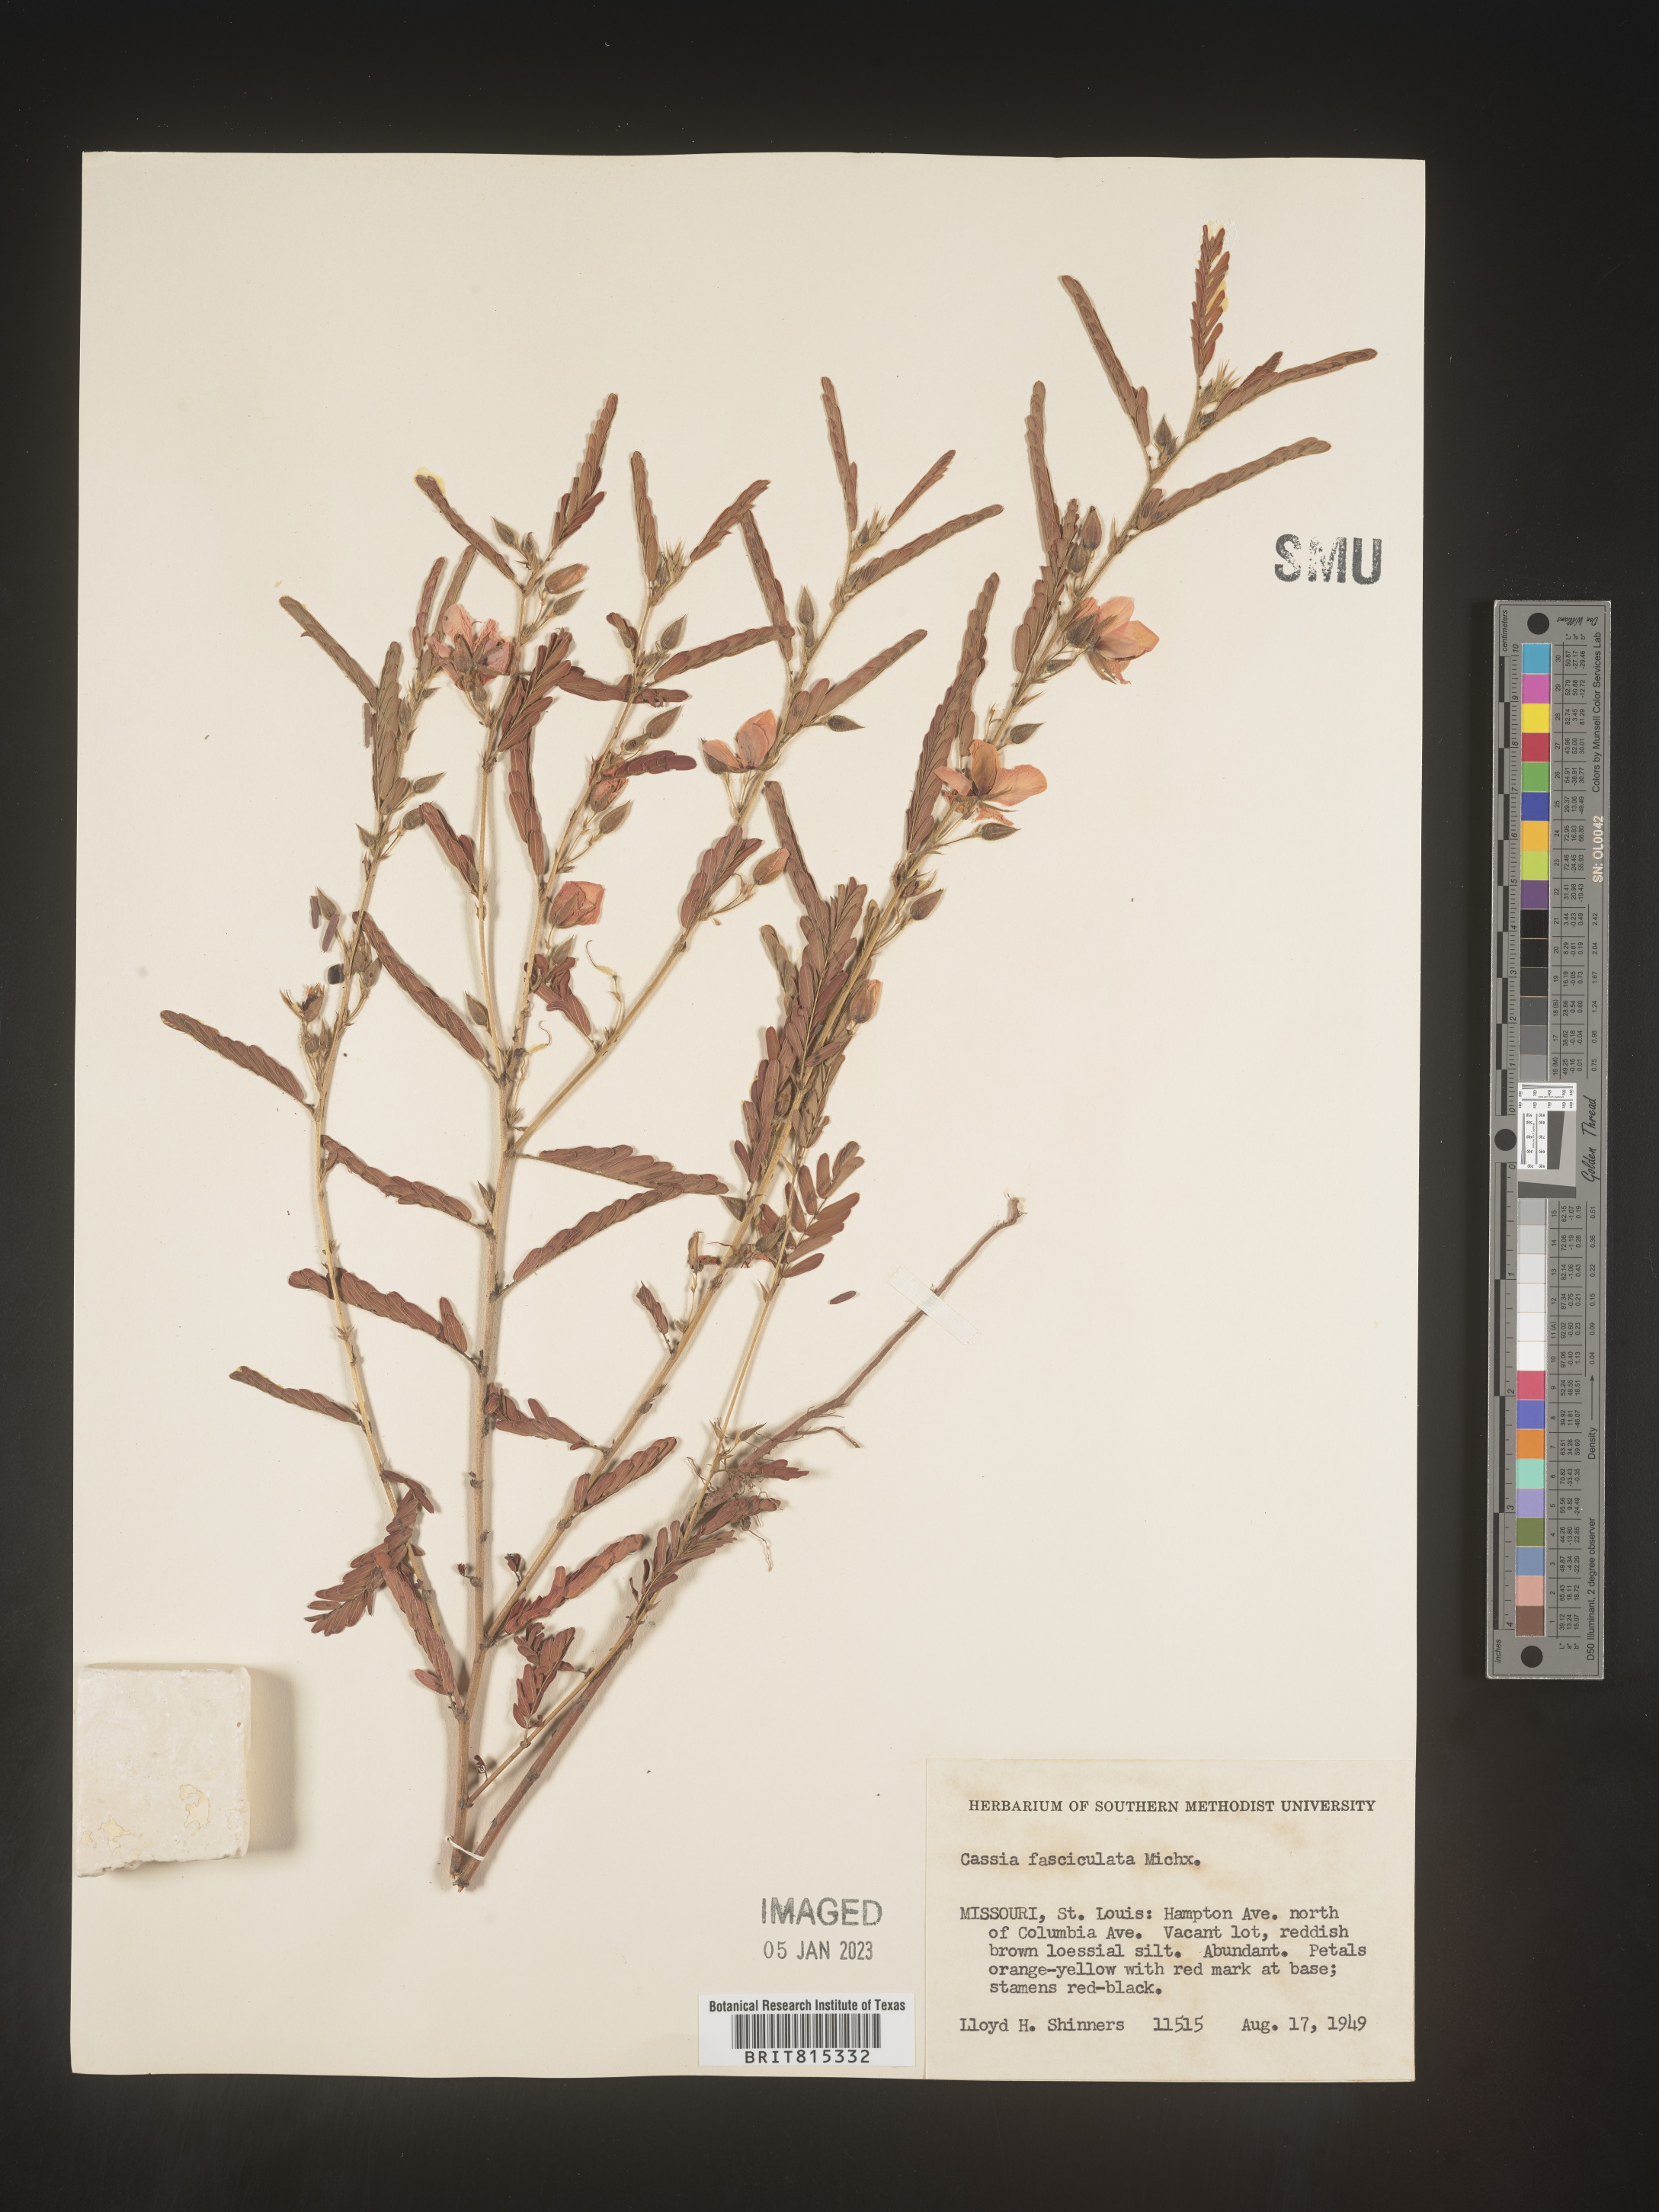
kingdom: Plantae
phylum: Tracheophyta
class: Magnoliopsida
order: Fabales
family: Fabaceae
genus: Chamaecrista
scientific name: Chamaecrista fasciculata
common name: Golden cassia
